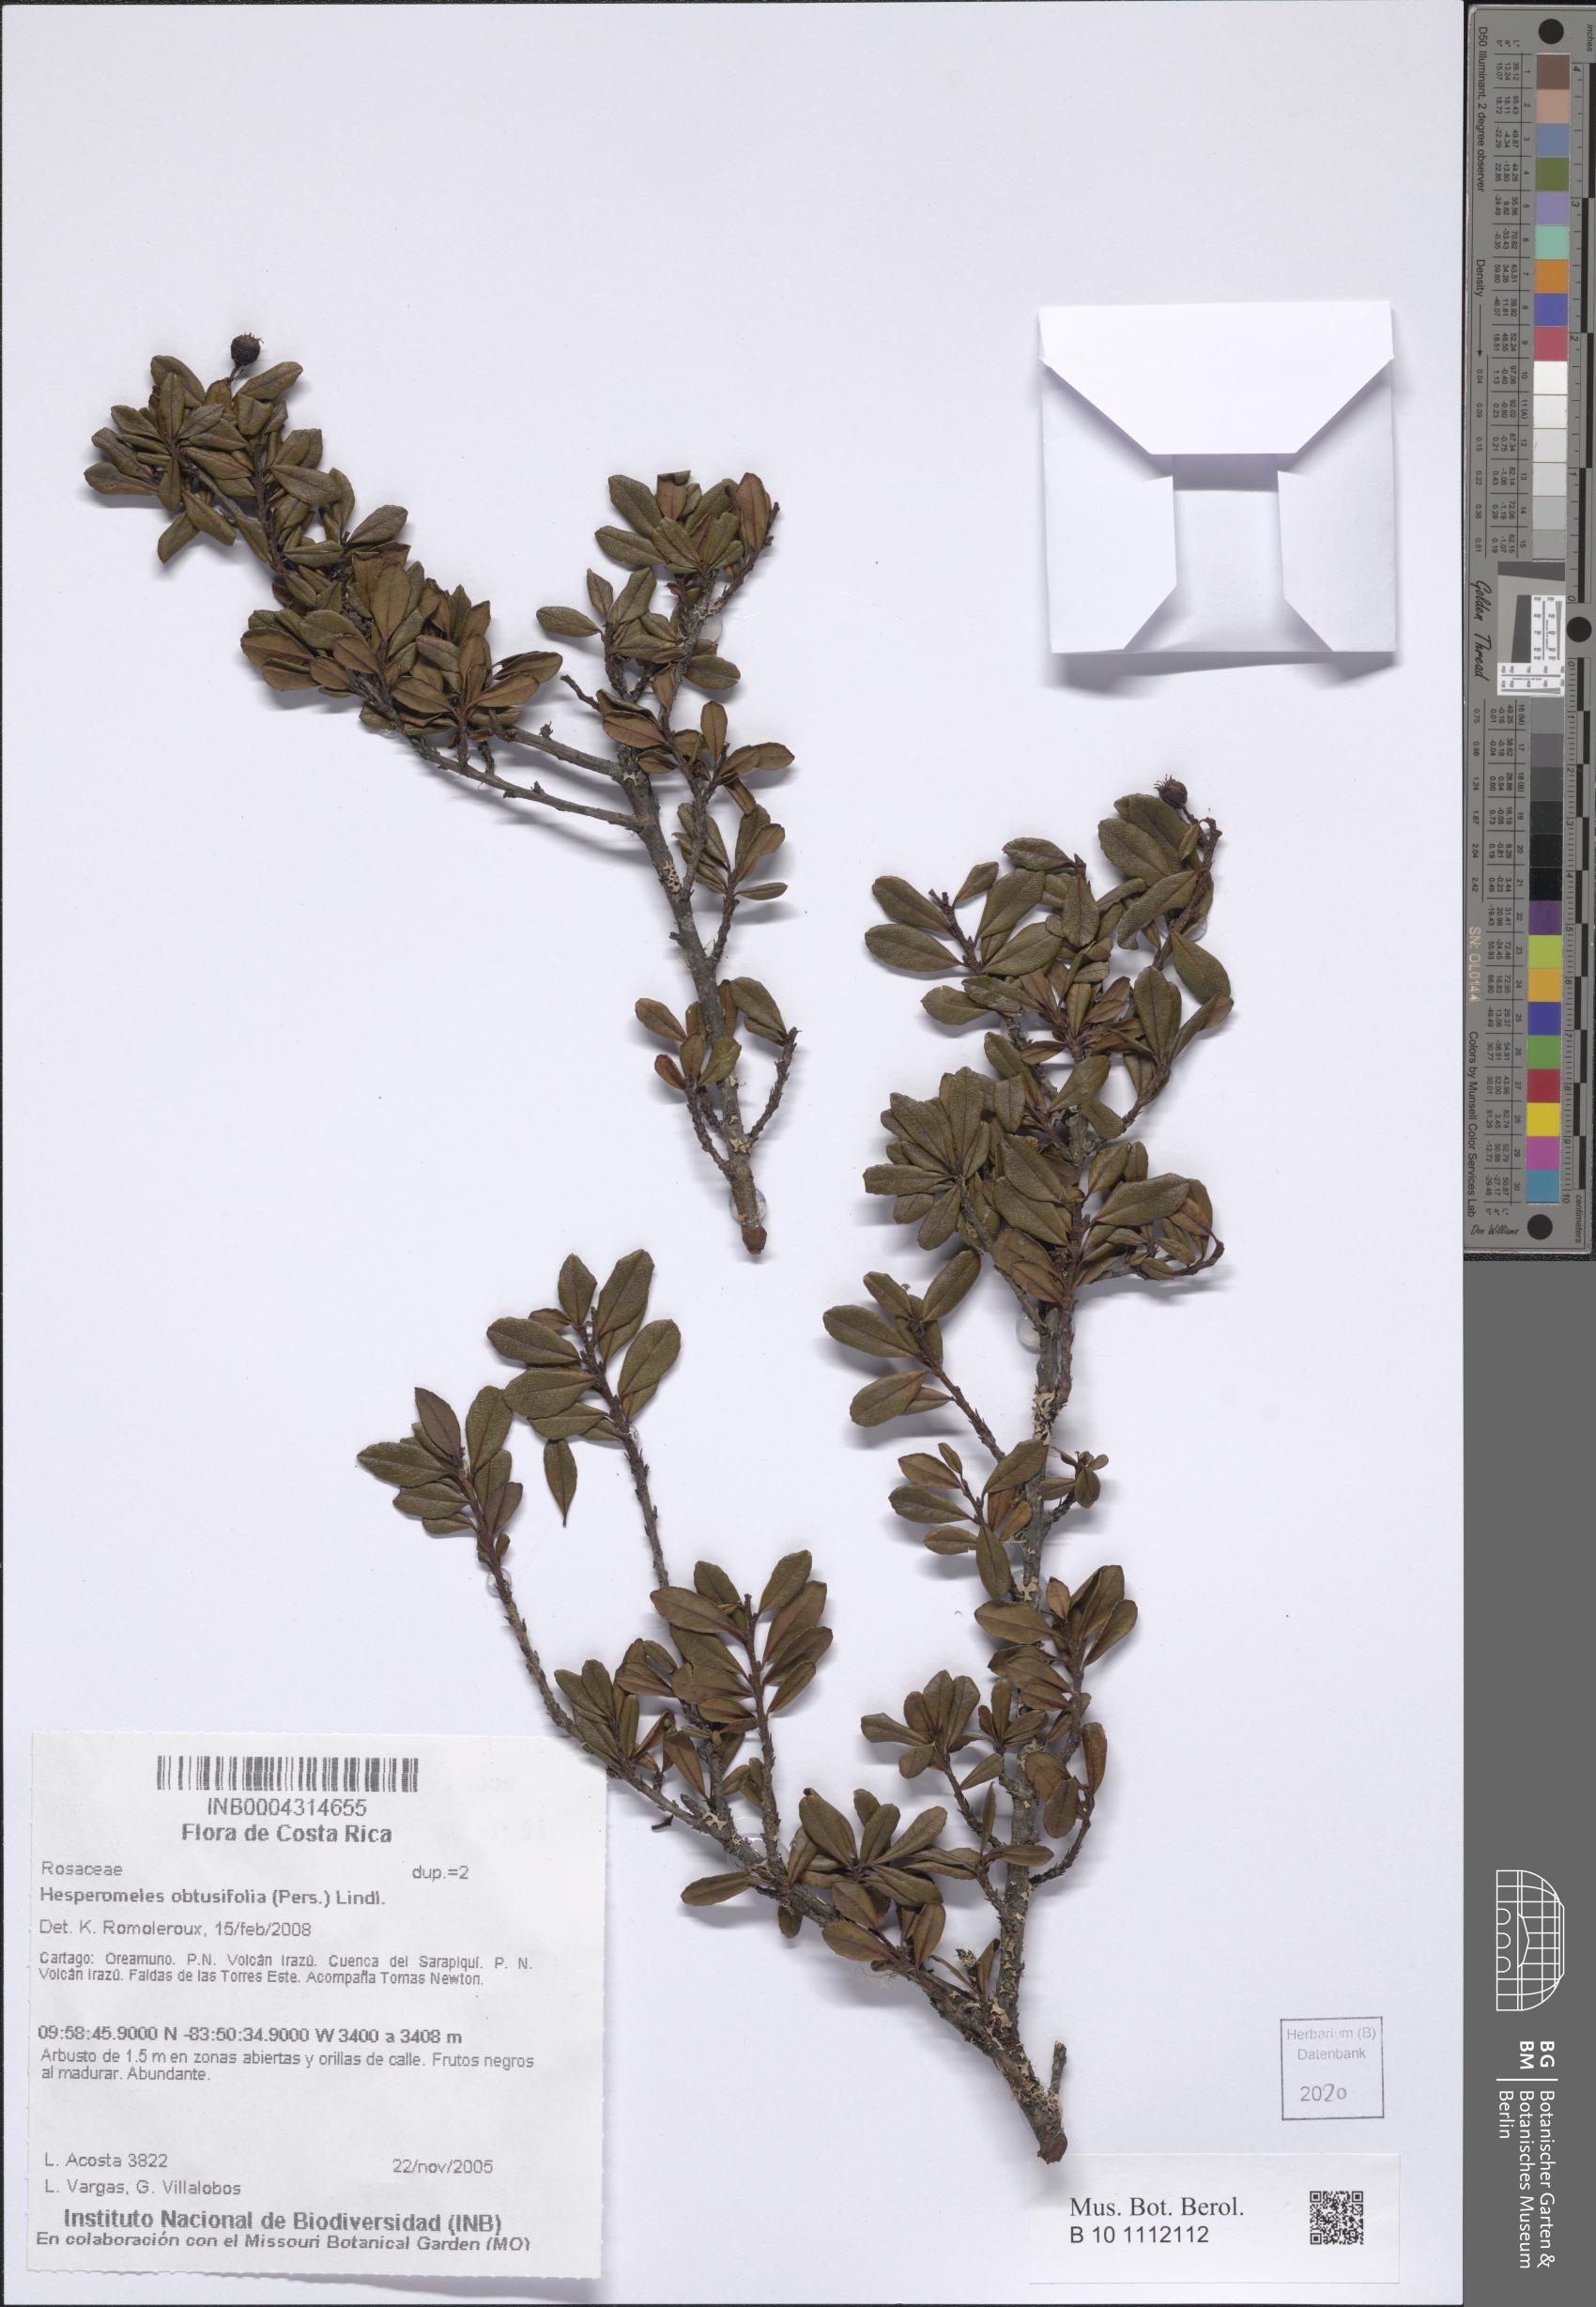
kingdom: Plantae
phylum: Tracheophyta
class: Magnoliopsida
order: Rosales
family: Rosaceae
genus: Hesperomeles
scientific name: Hesperomeles obtusifolia
